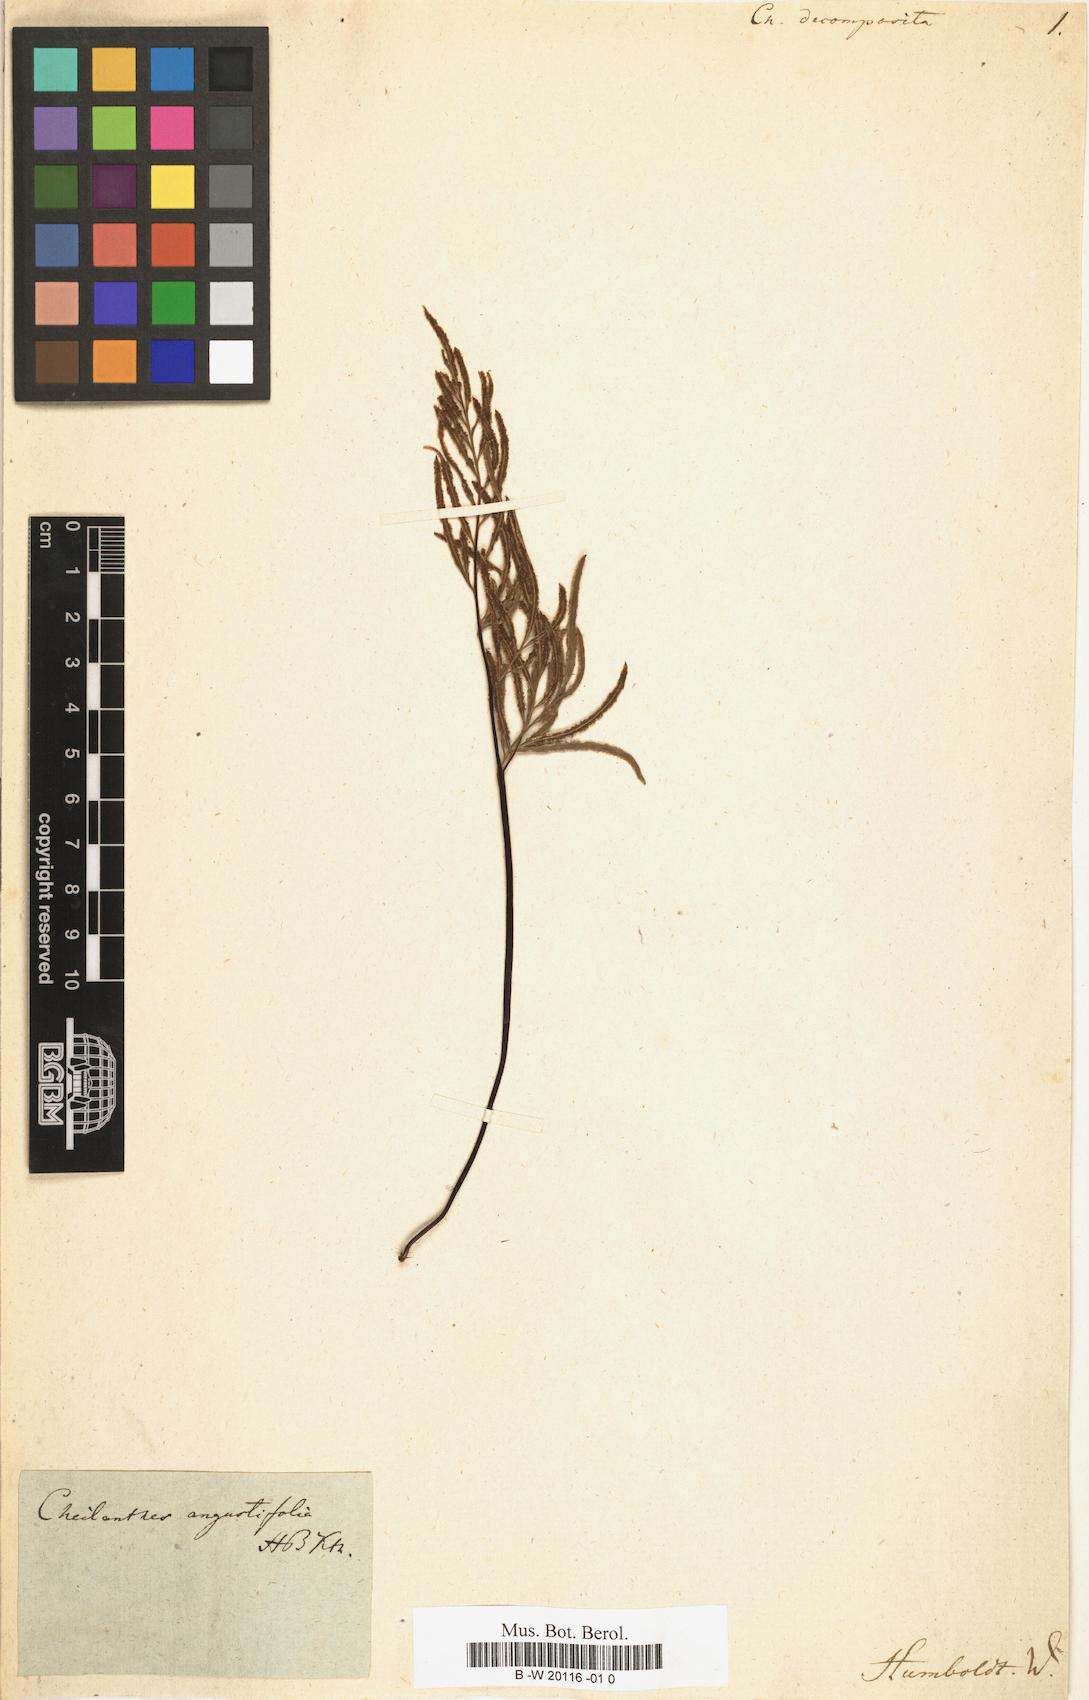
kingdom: Plantae
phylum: Tracheophyta
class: Polypodiopsida
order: Polypodiales
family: Pteridaceae
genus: Gaga
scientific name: Gaga decomposita
